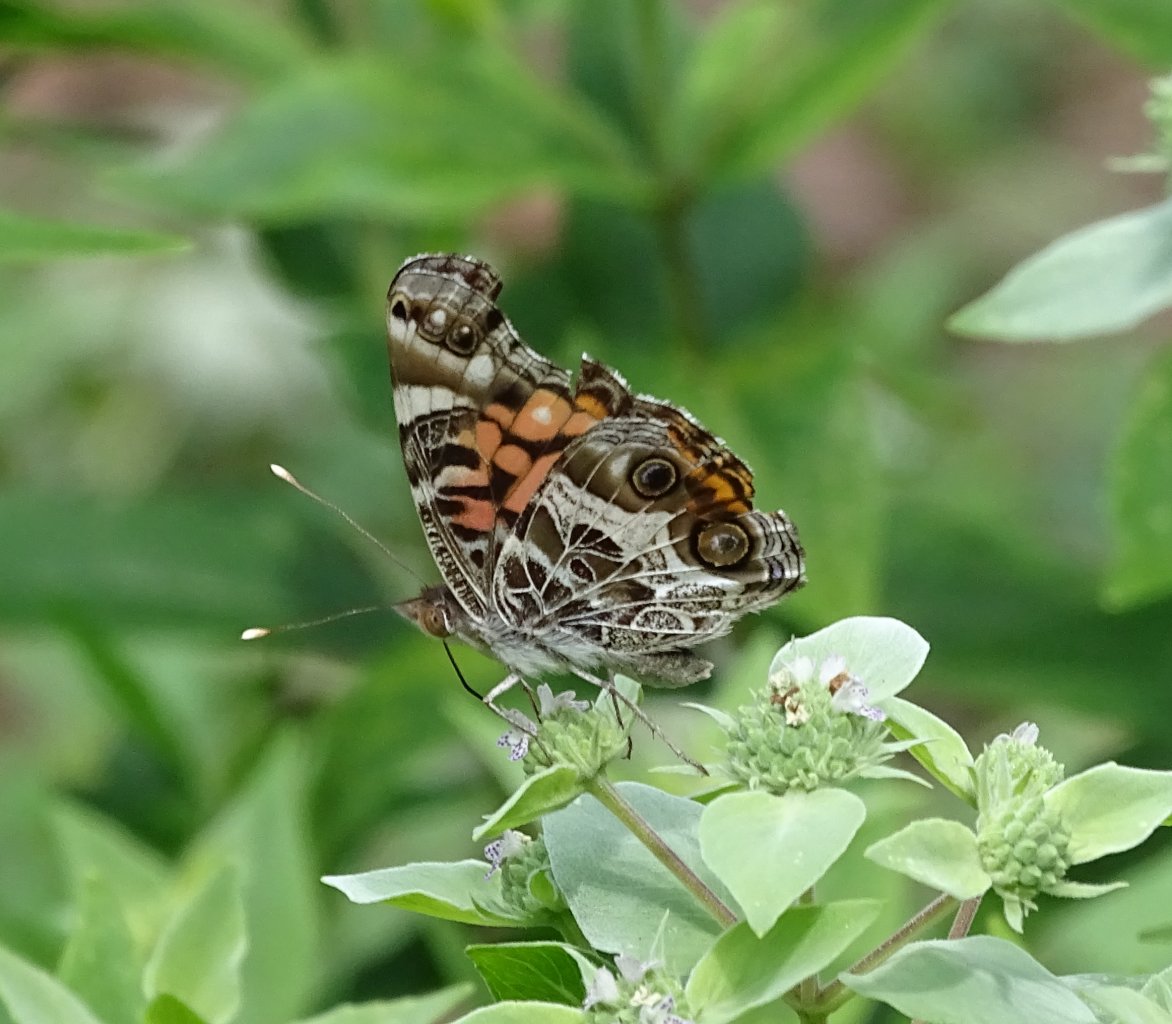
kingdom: Animalia
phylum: Arthropoda
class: Insecta
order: Lepidoptera
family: Nymphalidae
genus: Vanessa
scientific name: Vanessa virginiensis
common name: American Lady
